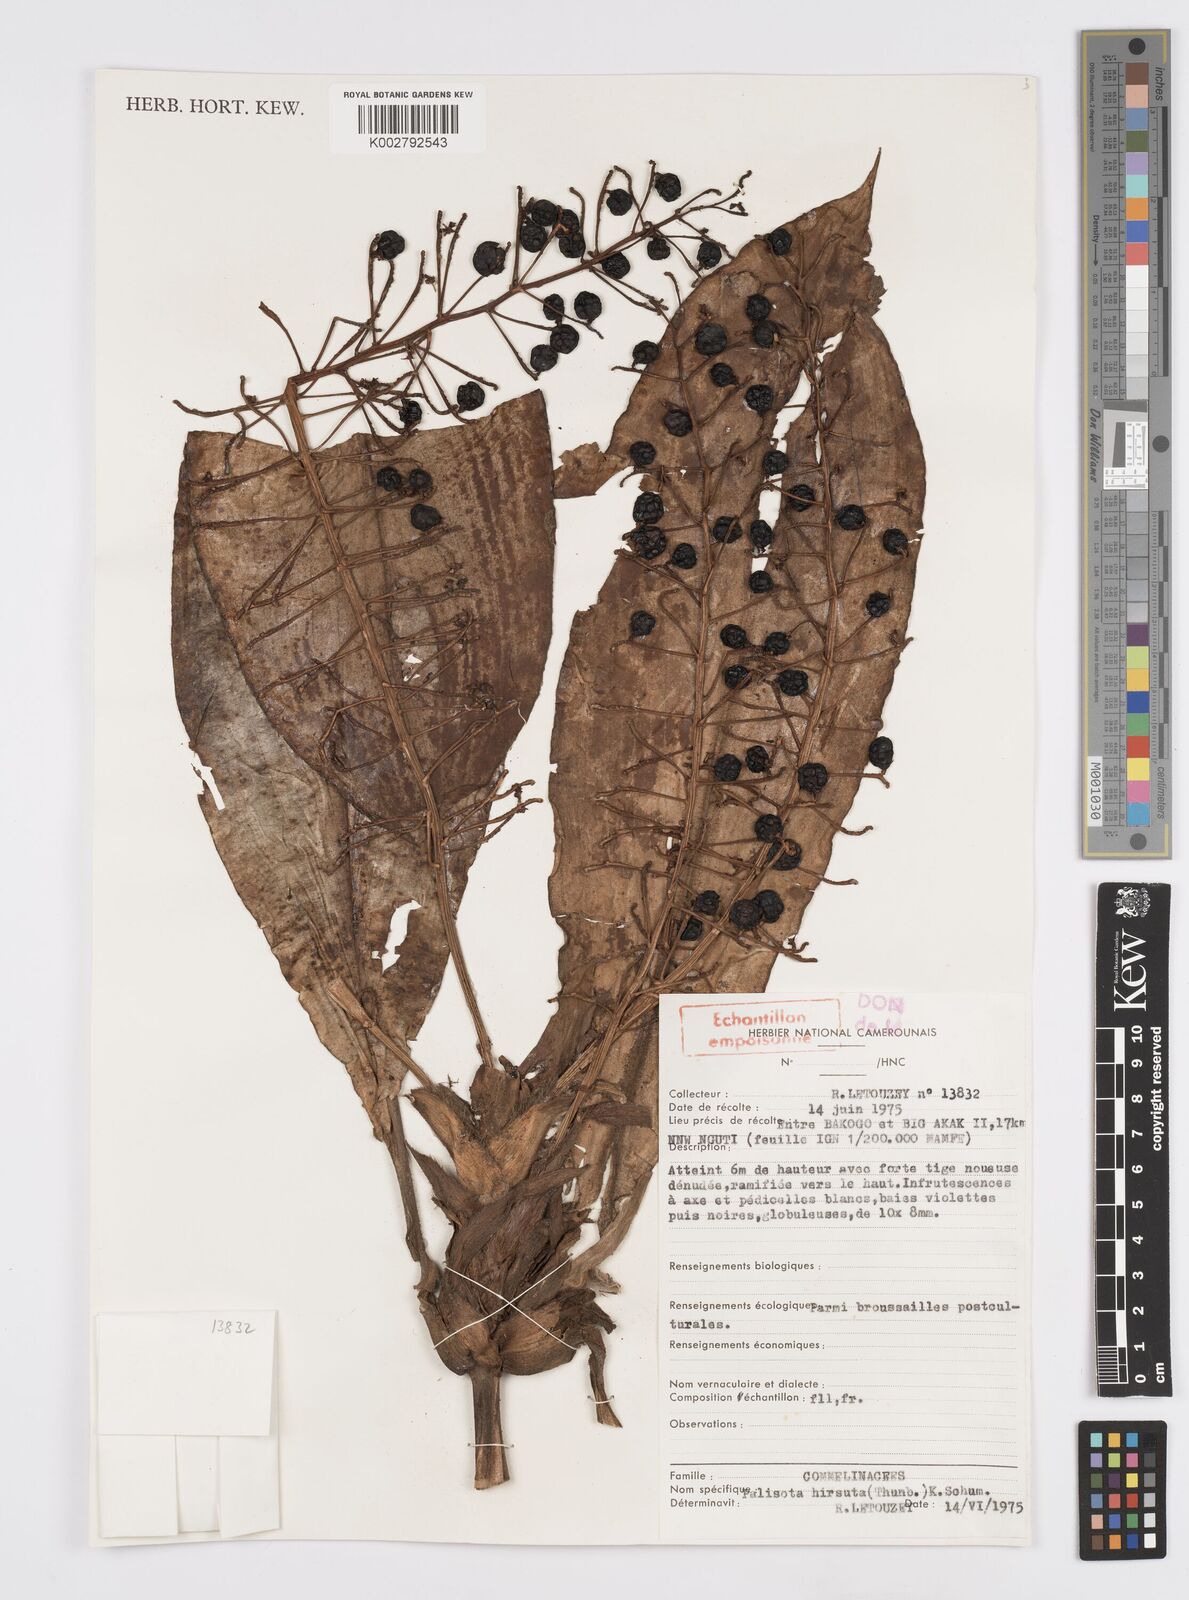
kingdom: Plantae
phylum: Tracheophyta
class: Liliopsida
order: Commelinales
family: Commelinaceae
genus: Palisota
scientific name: Palisota hirsuta
